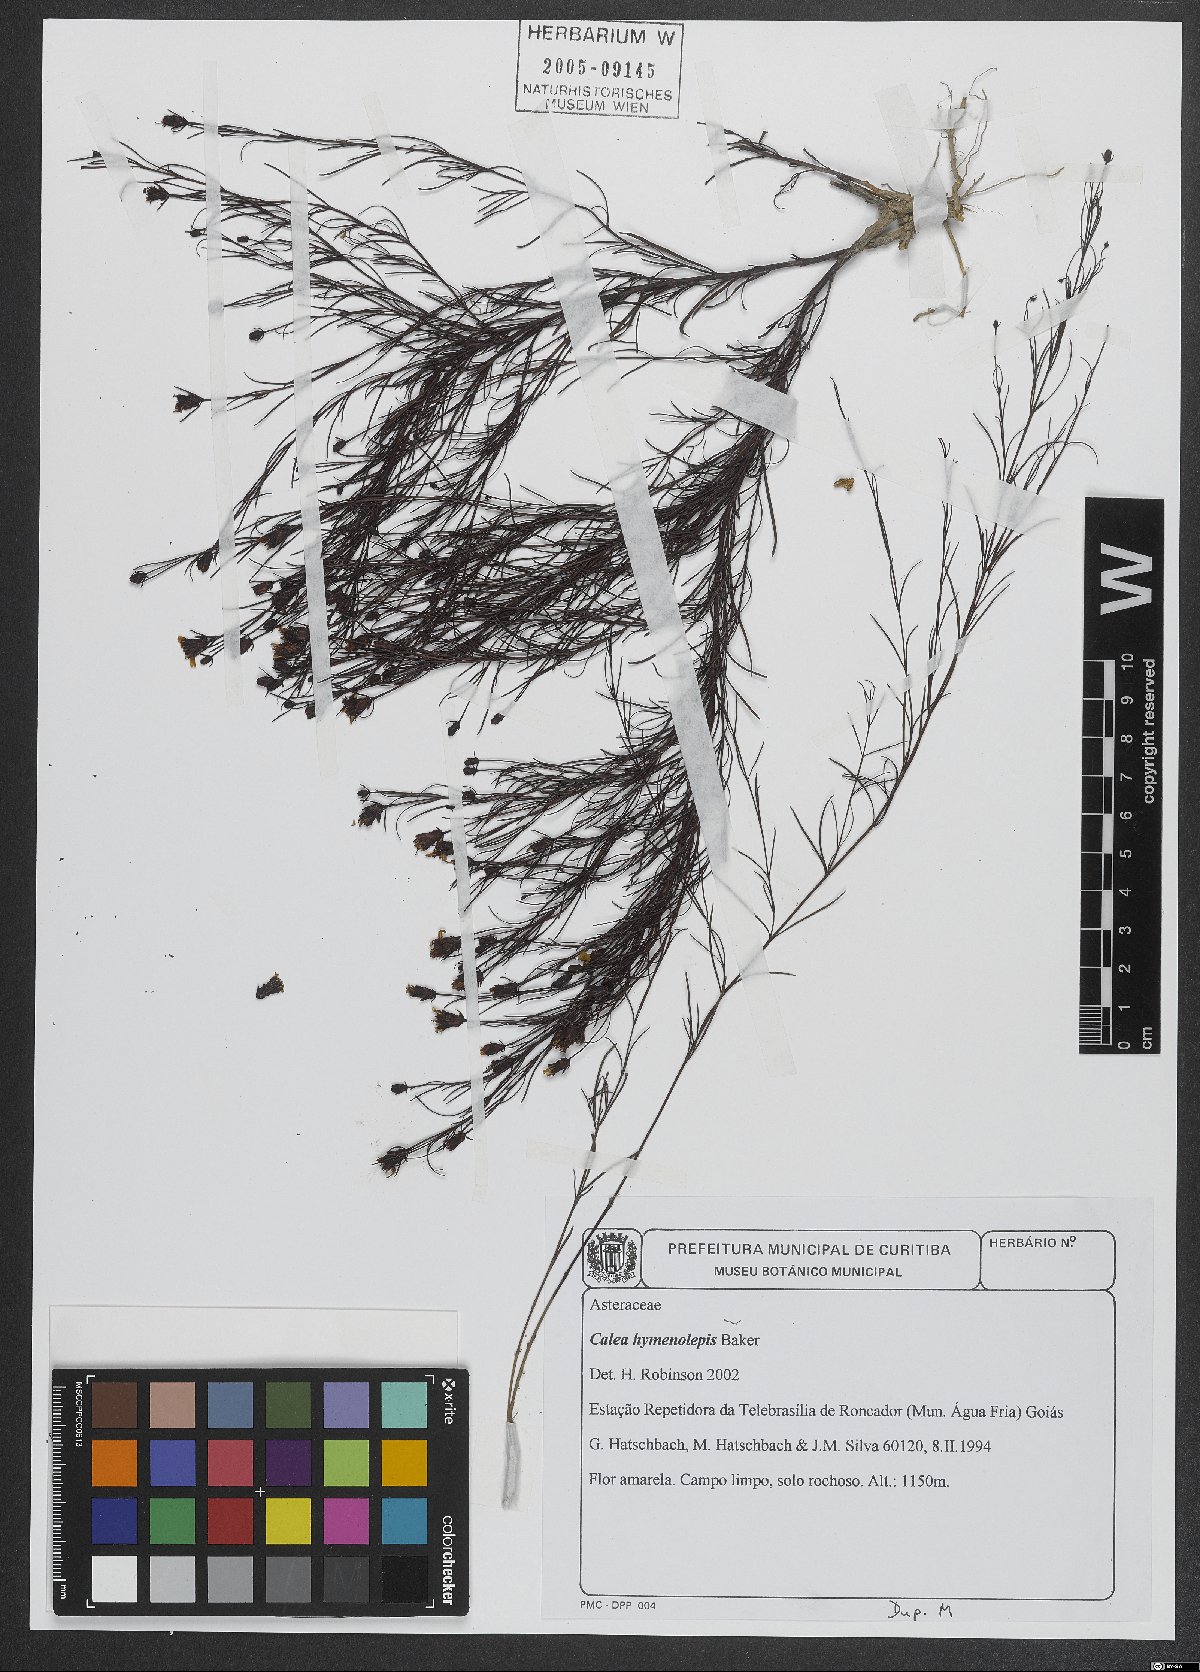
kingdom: Plantae
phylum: Tracheophyta
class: Magnoliopsida
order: Asterales
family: Asteraceae
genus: Calea
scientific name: Calea hymenolepis
